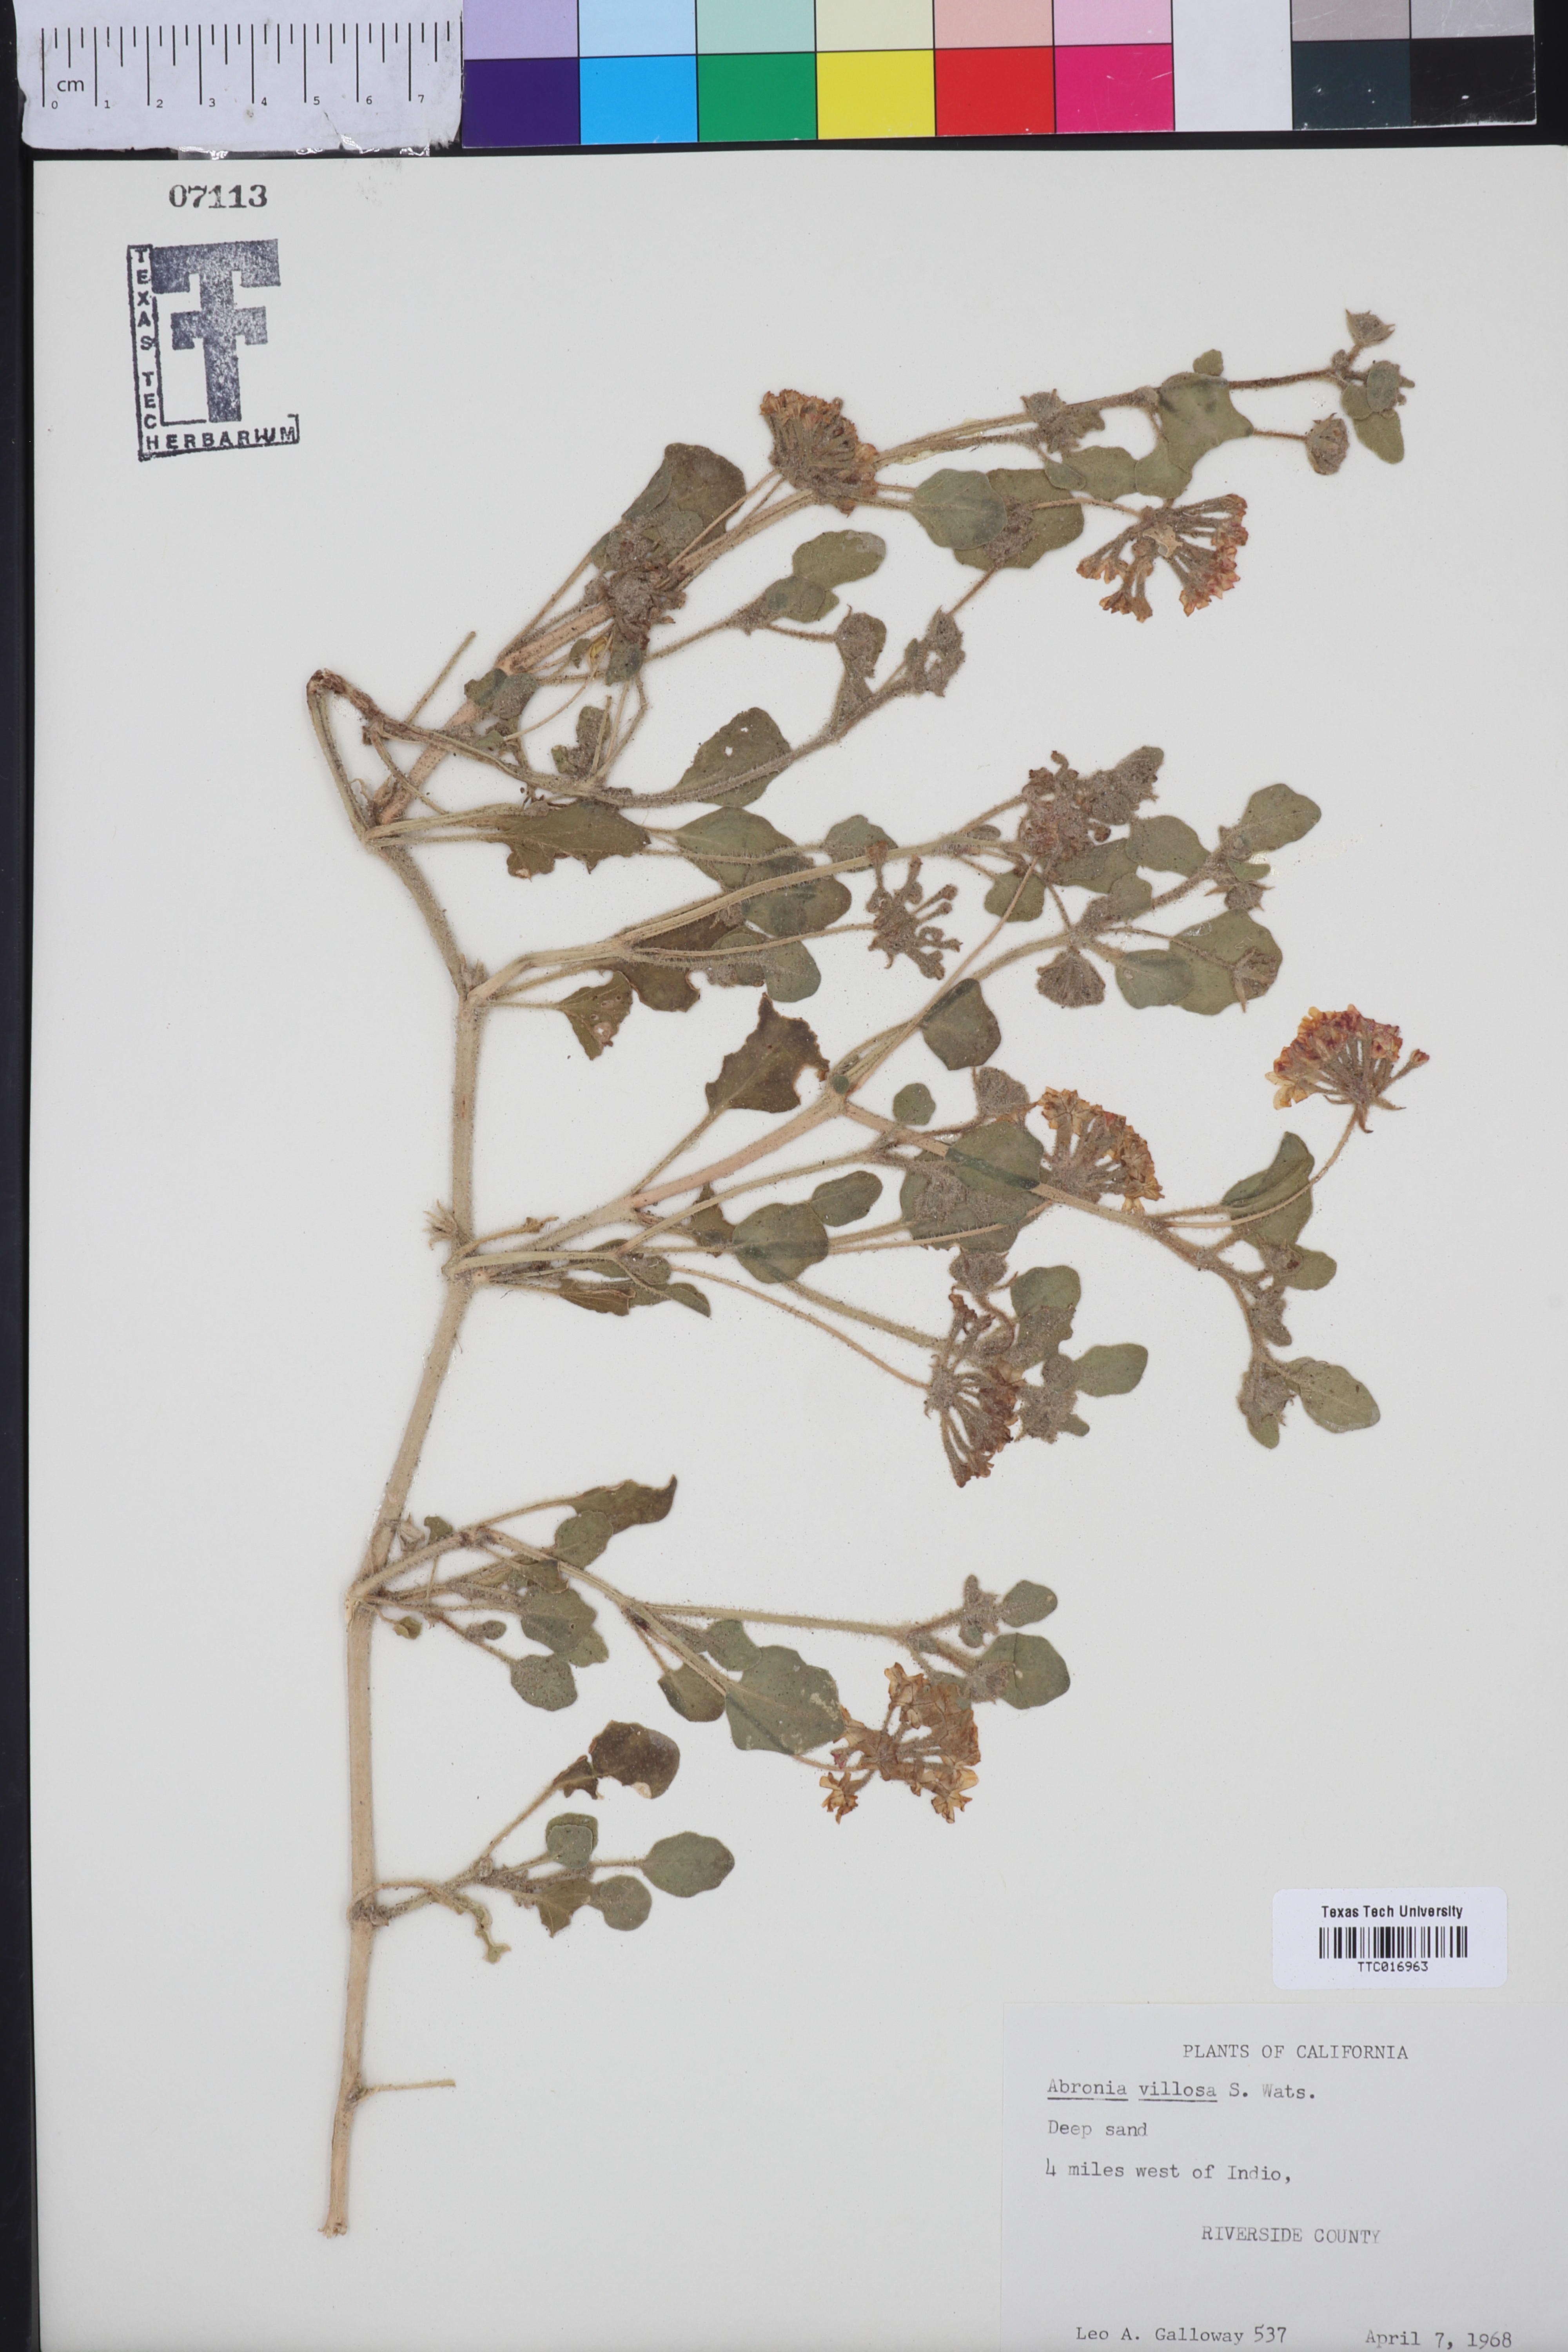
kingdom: Plantae
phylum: Tracheophyta
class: Magnoliopsida
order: Caryophyllales
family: Nyctaginaceae
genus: Abronia
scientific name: Abronia villosa
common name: Desert sand-verbena
